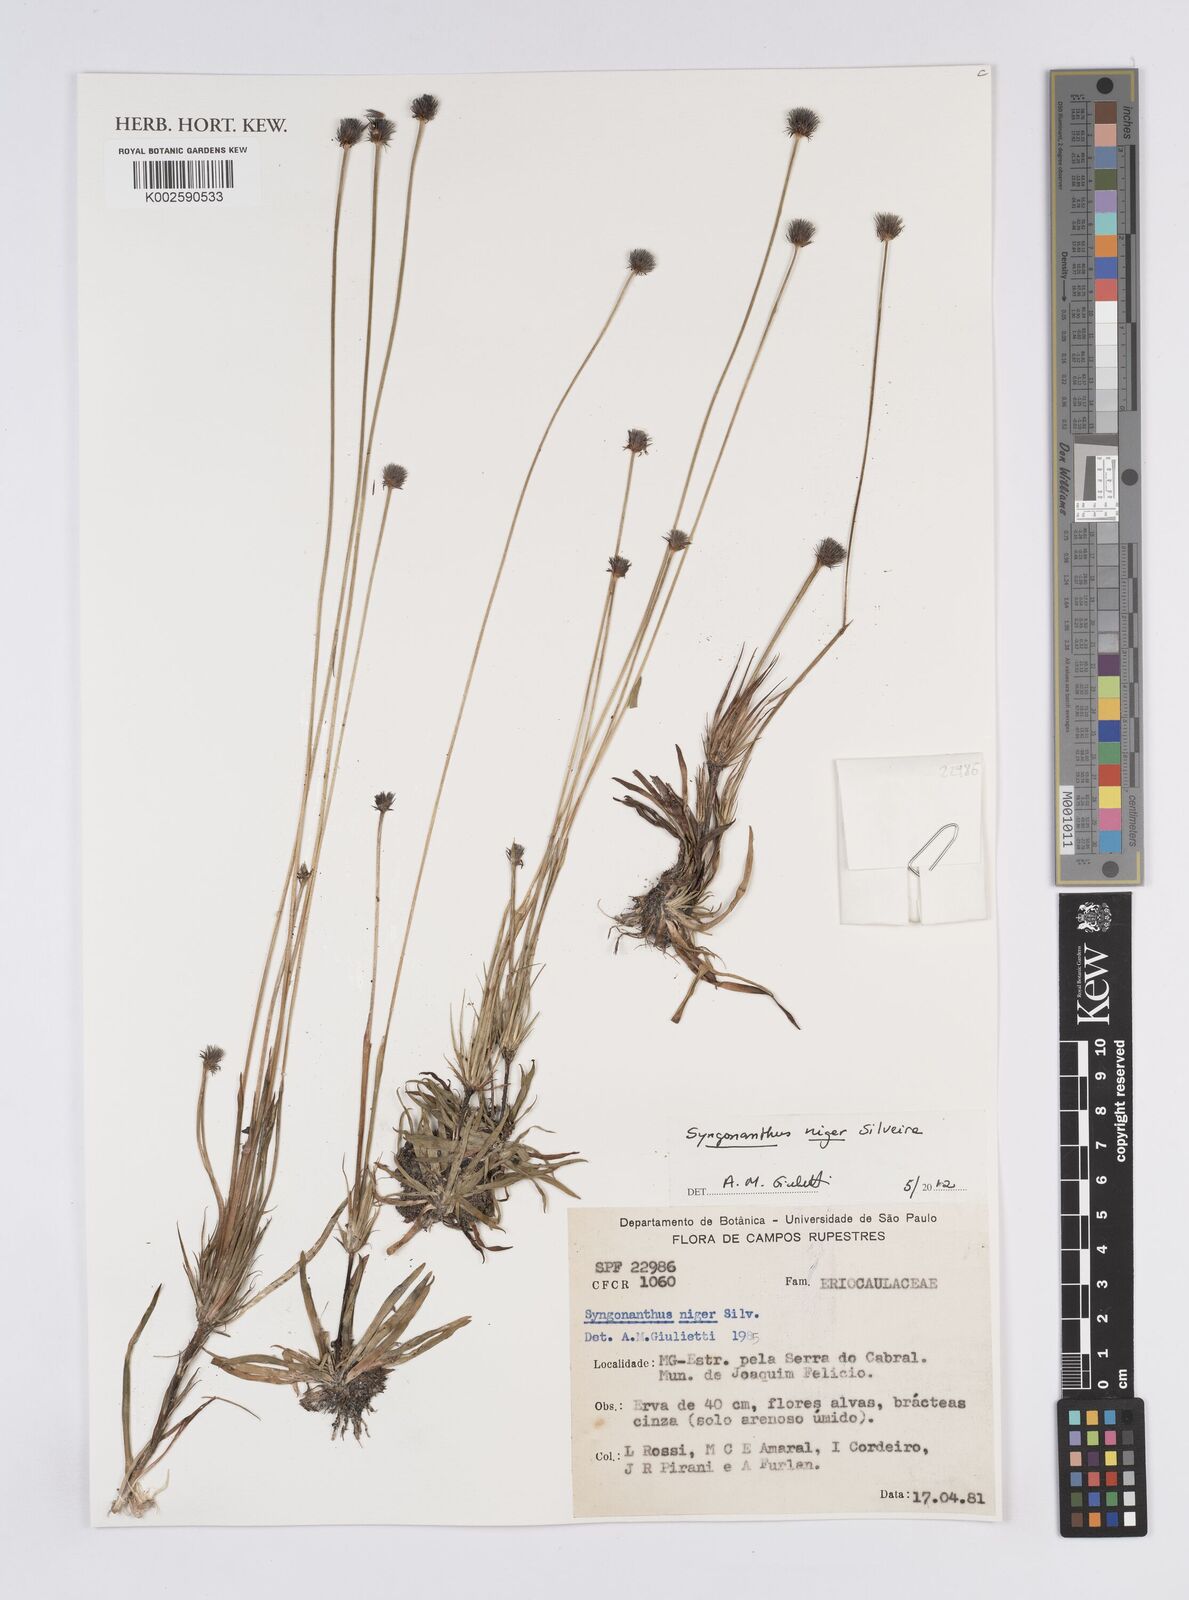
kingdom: Plantae
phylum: Tracheophyta
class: Liliopsida
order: Poales
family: Eriocaulaceae
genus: Syngonanthus
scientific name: Syngonanthus niger
